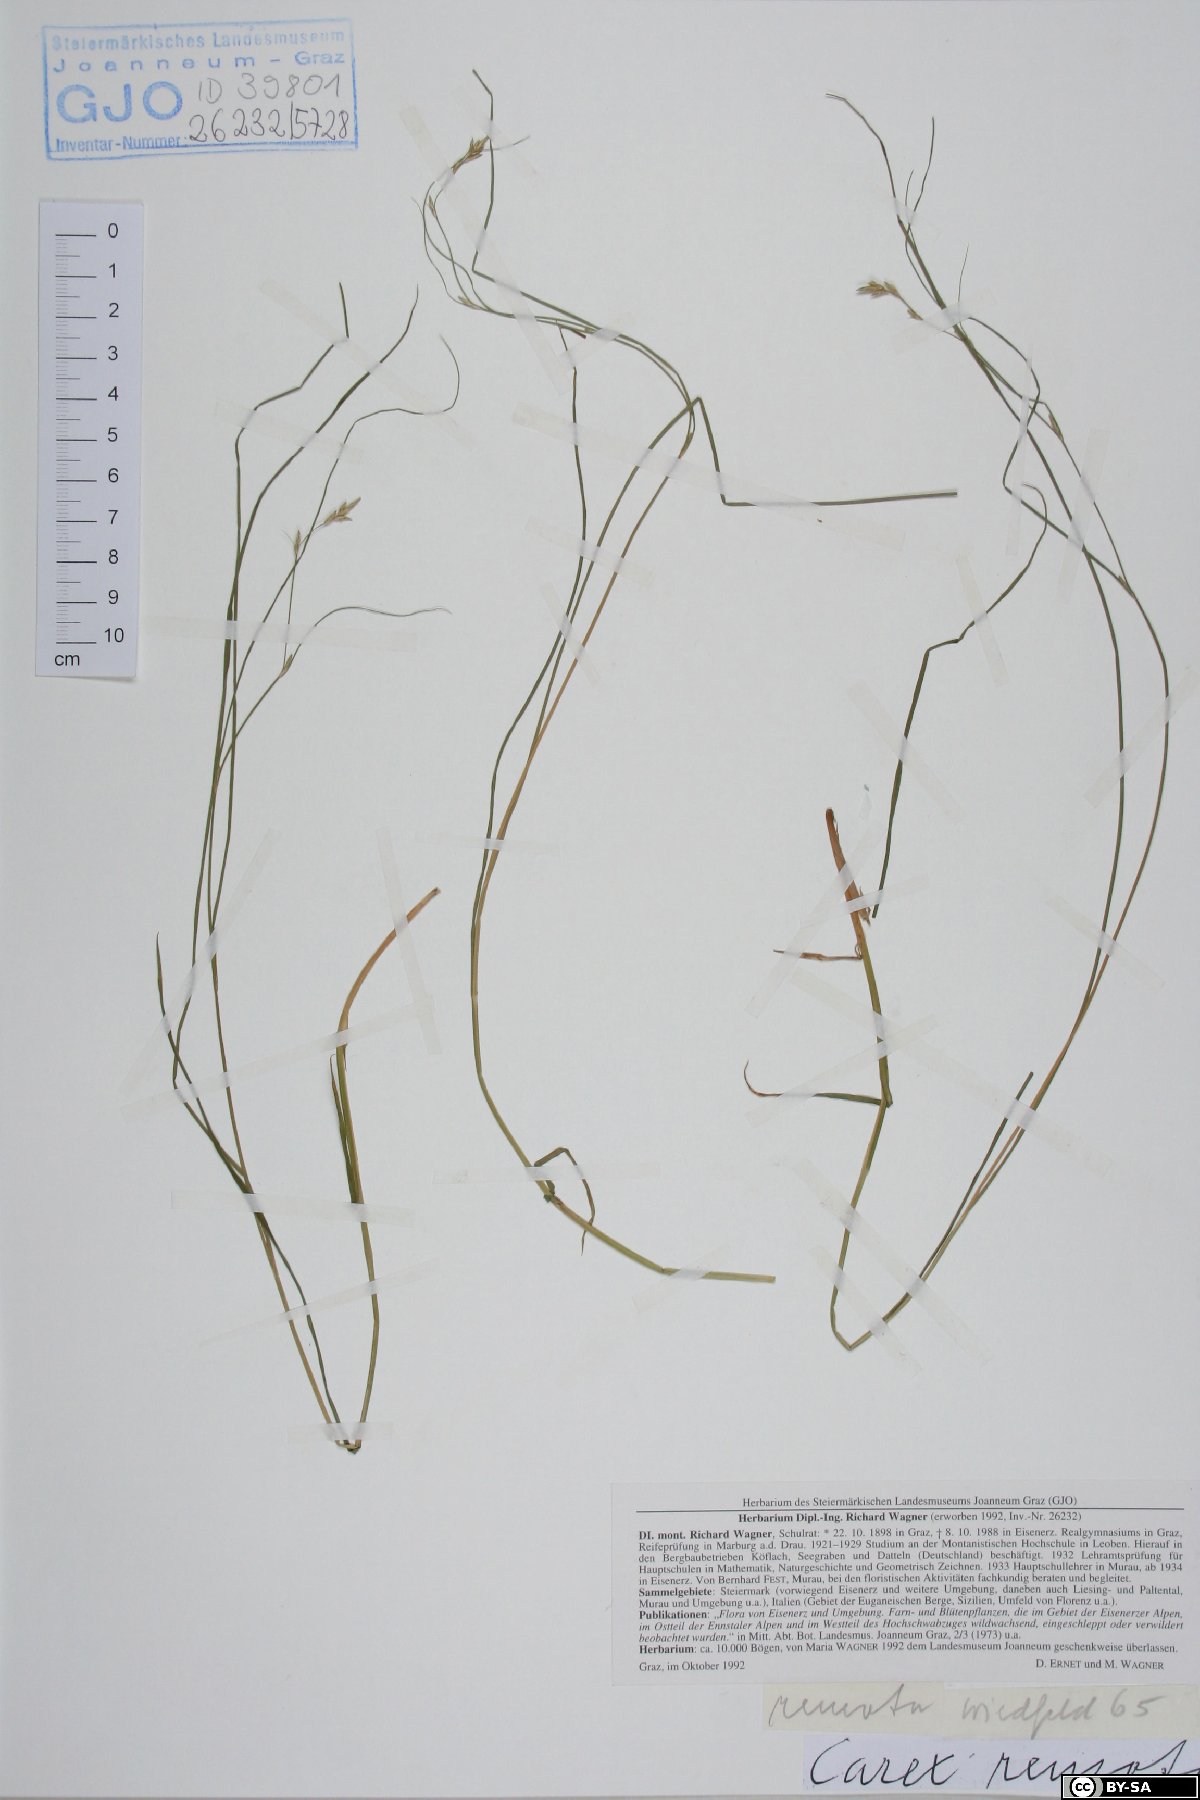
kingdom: Plantae
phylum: Tracheophyta
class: Liliopsida
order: Poales
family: Cyperaceae
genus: Carex
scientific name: Carex remota
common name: Remote sedge
